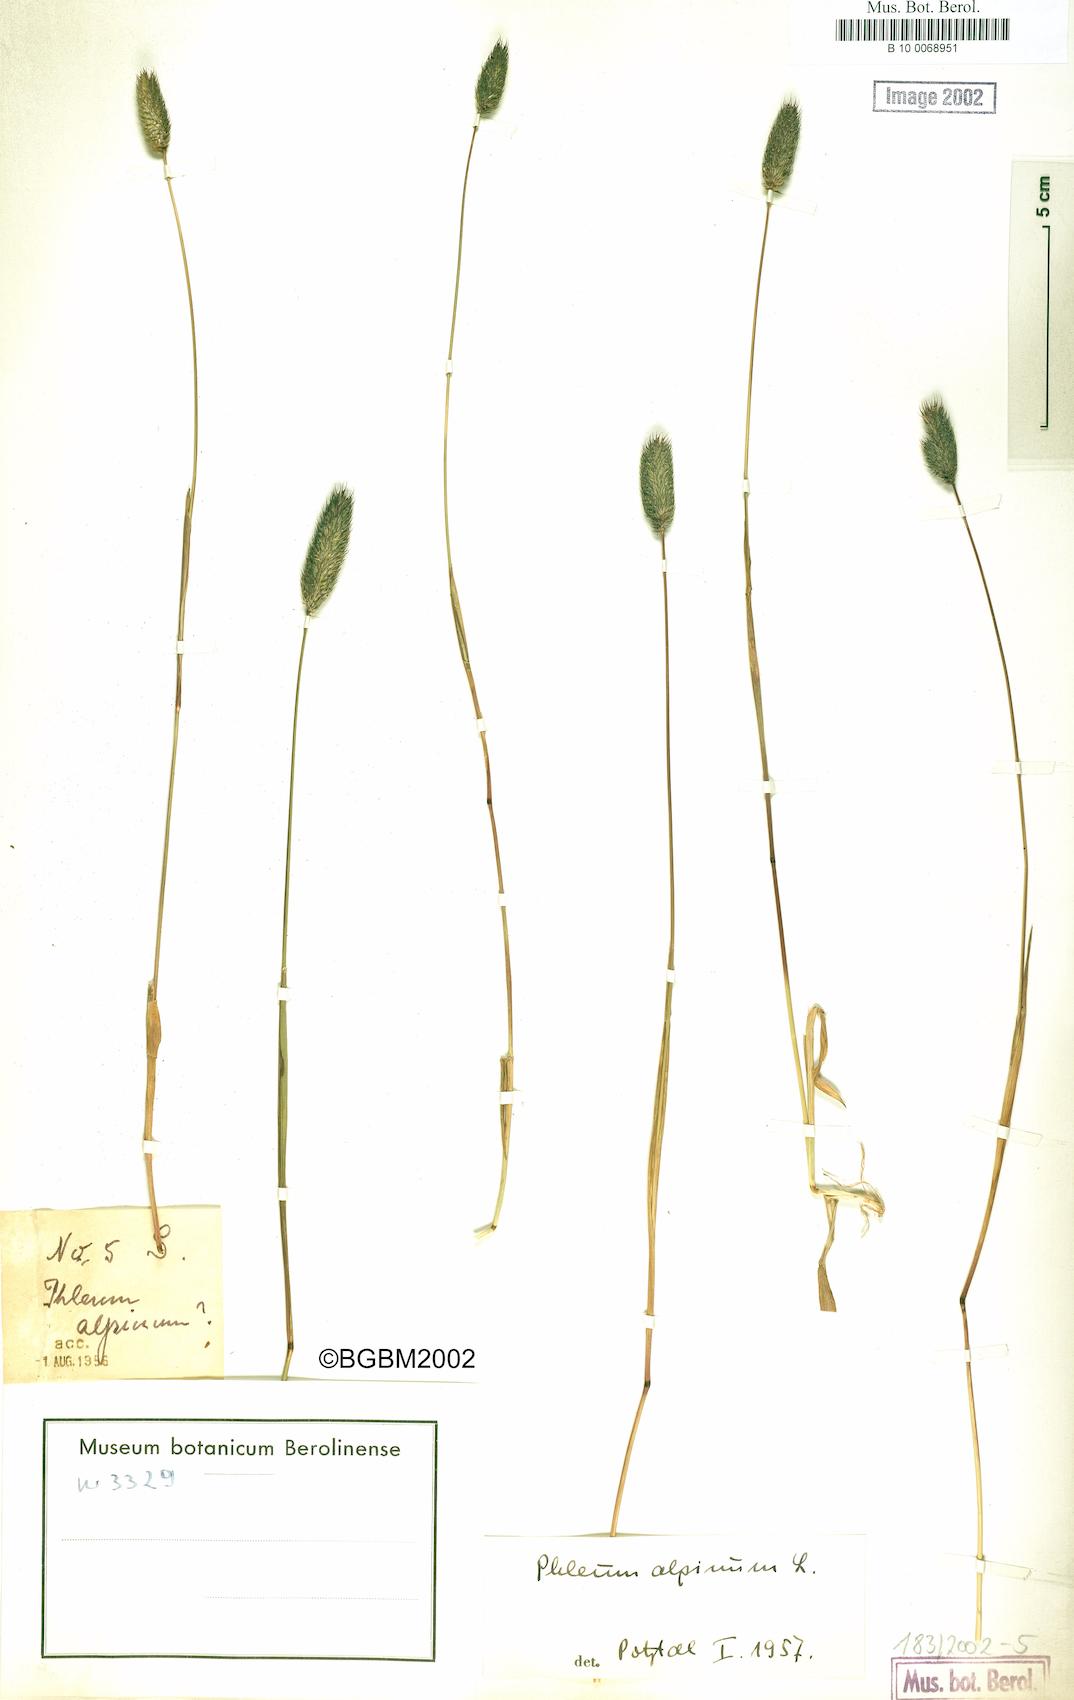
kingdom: Plantae
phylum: Tracheophyta
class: Liliopsida
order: Poales
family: Poaceae
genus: Phleum
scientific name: Phleum alpinum
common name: Alpine cat's-tail
